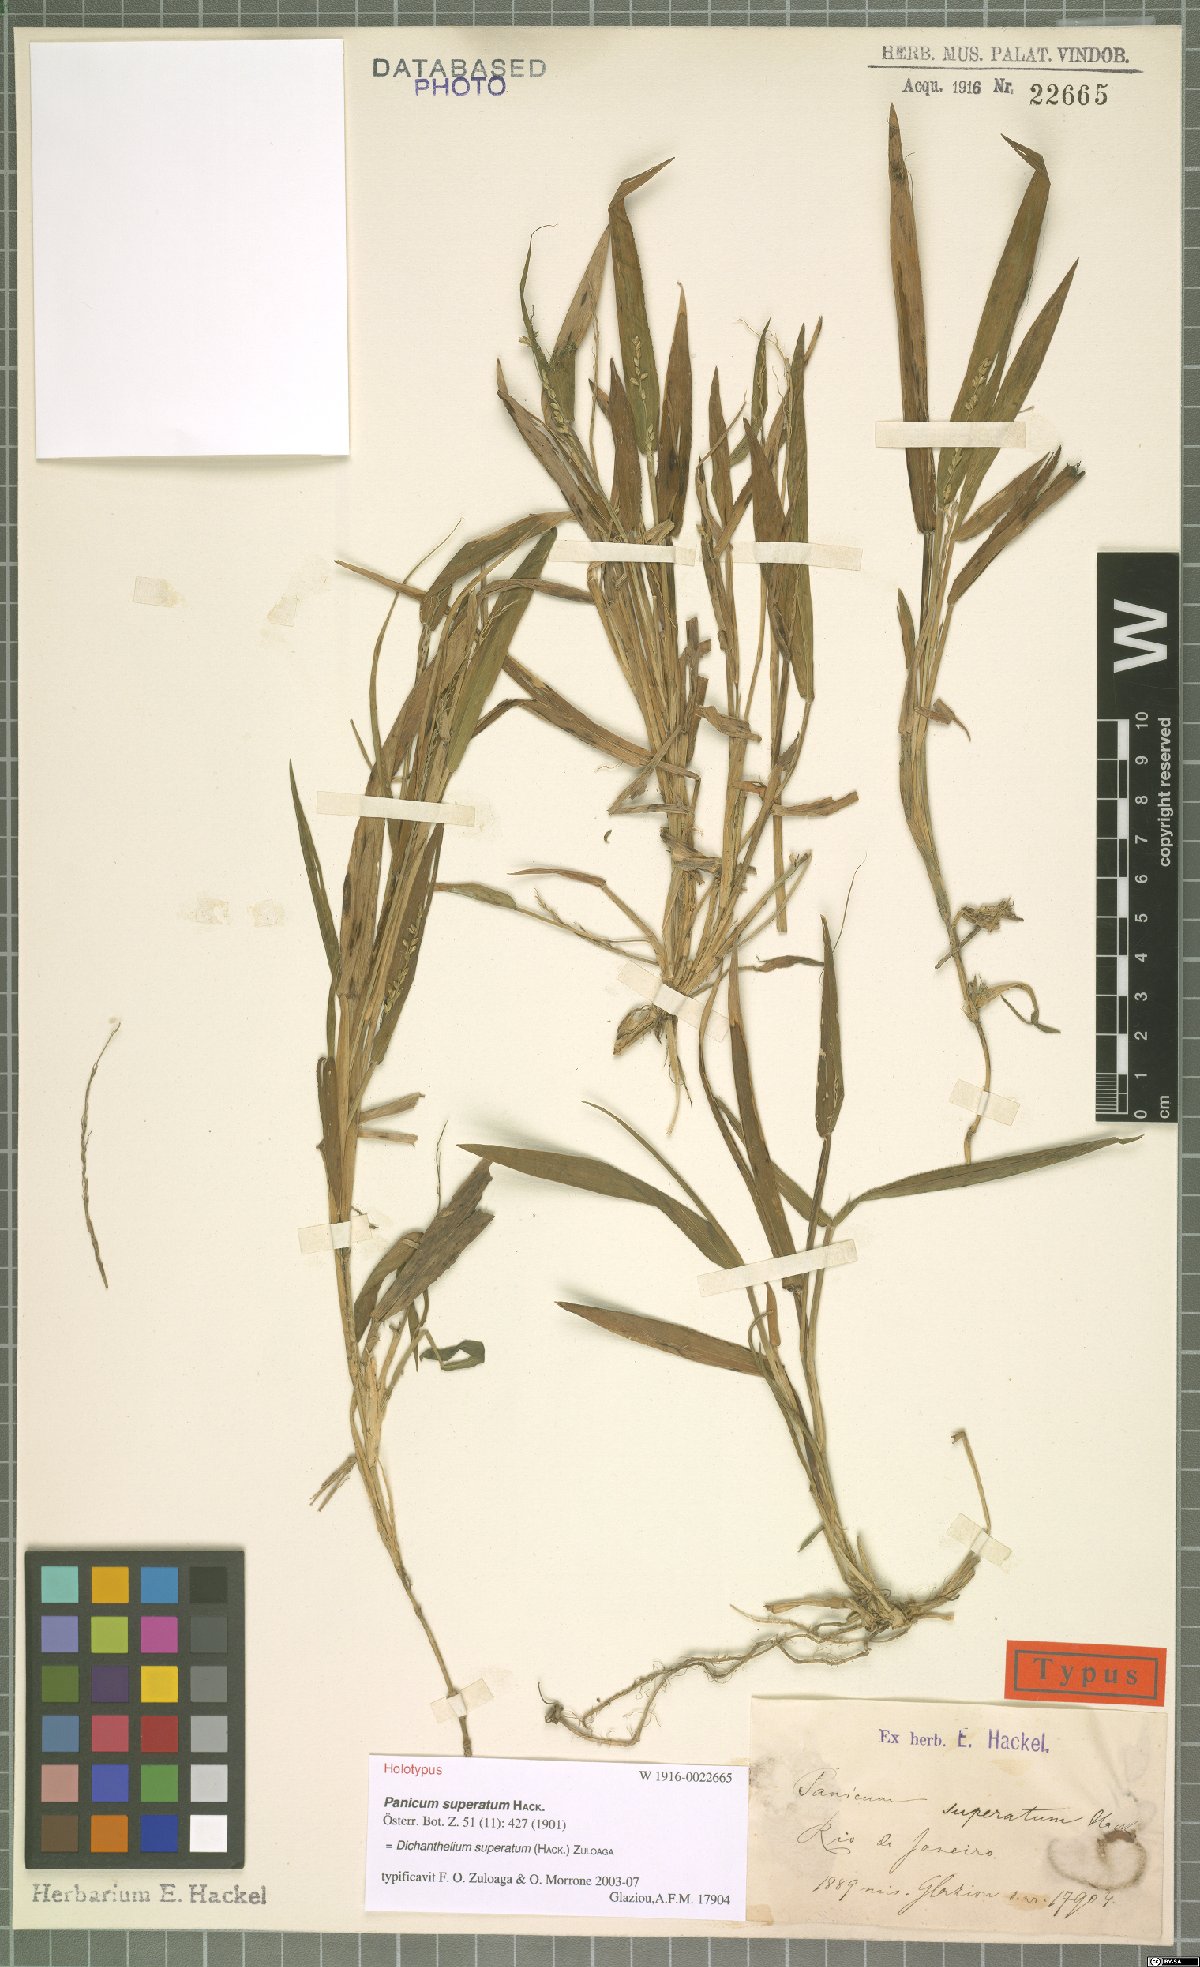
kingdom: Plantae
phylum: Tracheophyta
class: Liliopsida
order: Poales
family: Poaceae
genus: Dichanthelium
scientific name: Dichanthelium superatum
